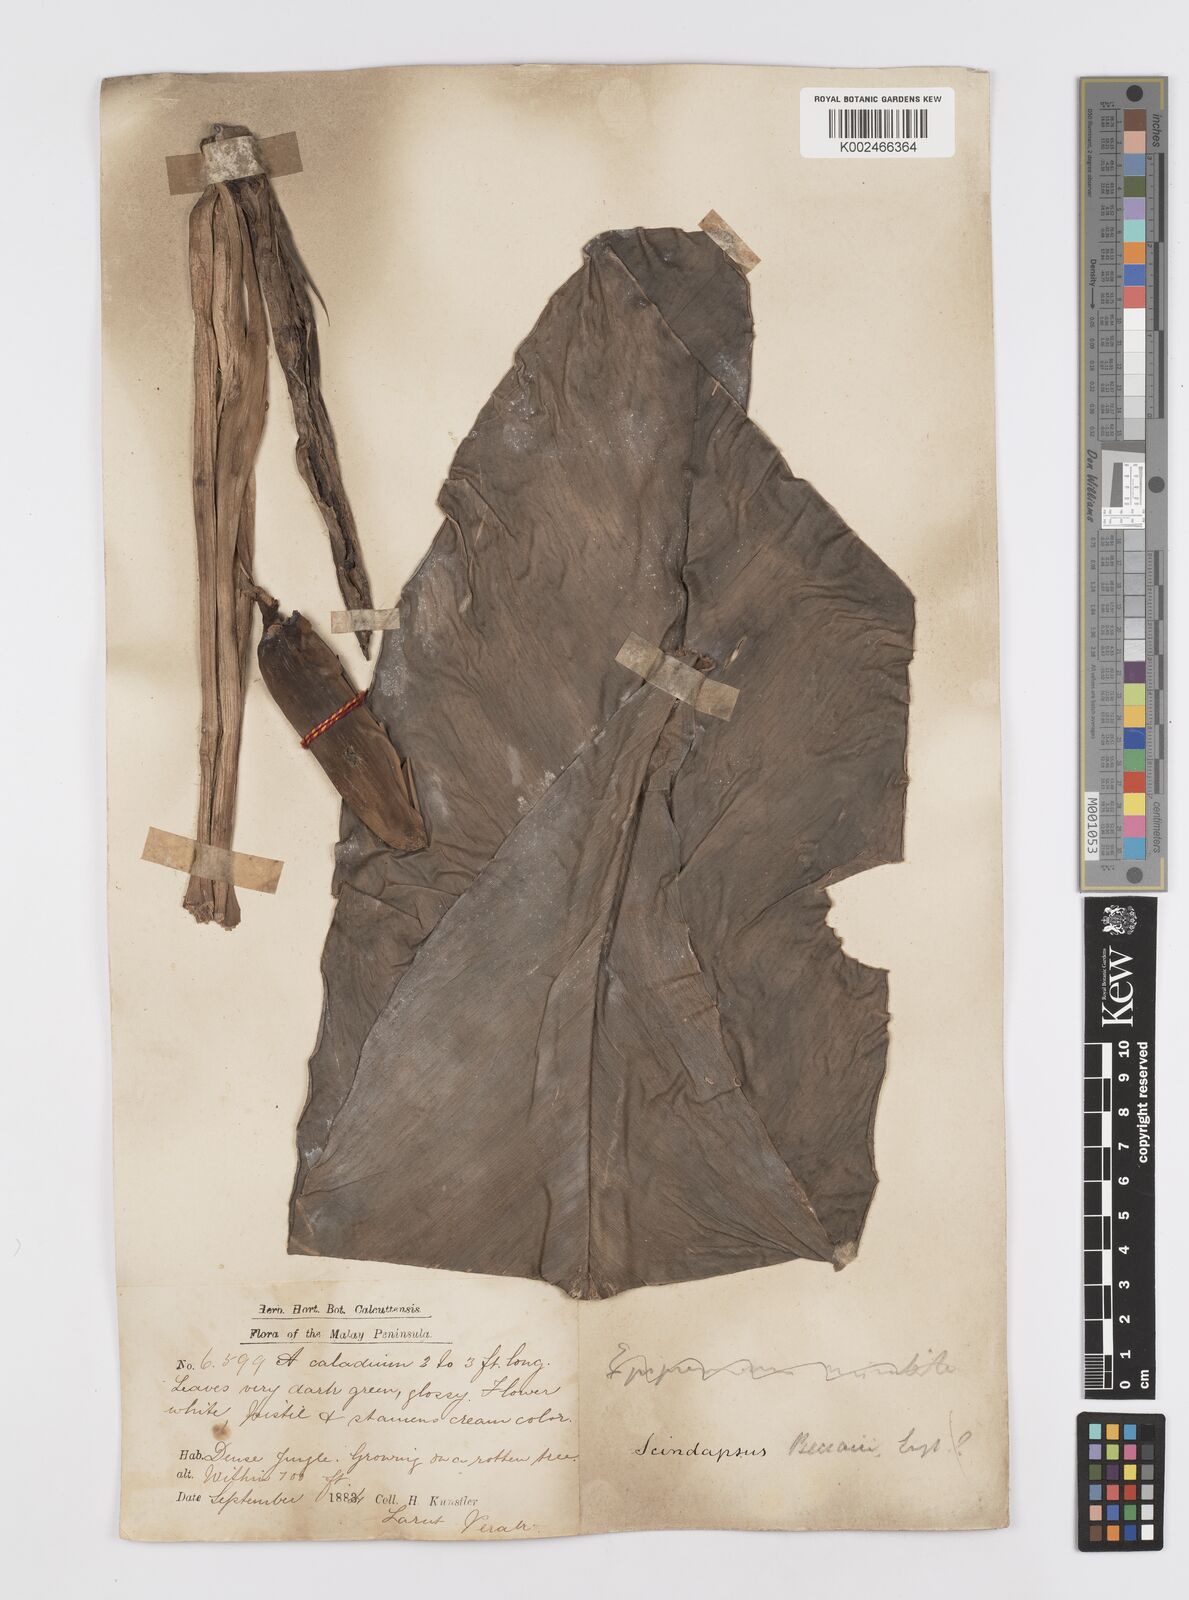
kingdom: Plantae
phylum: Tracheophyta
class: Liliopsida
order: Alismatales
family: Araceae
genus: Scindapsus
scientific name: Scindapsus beccarii
